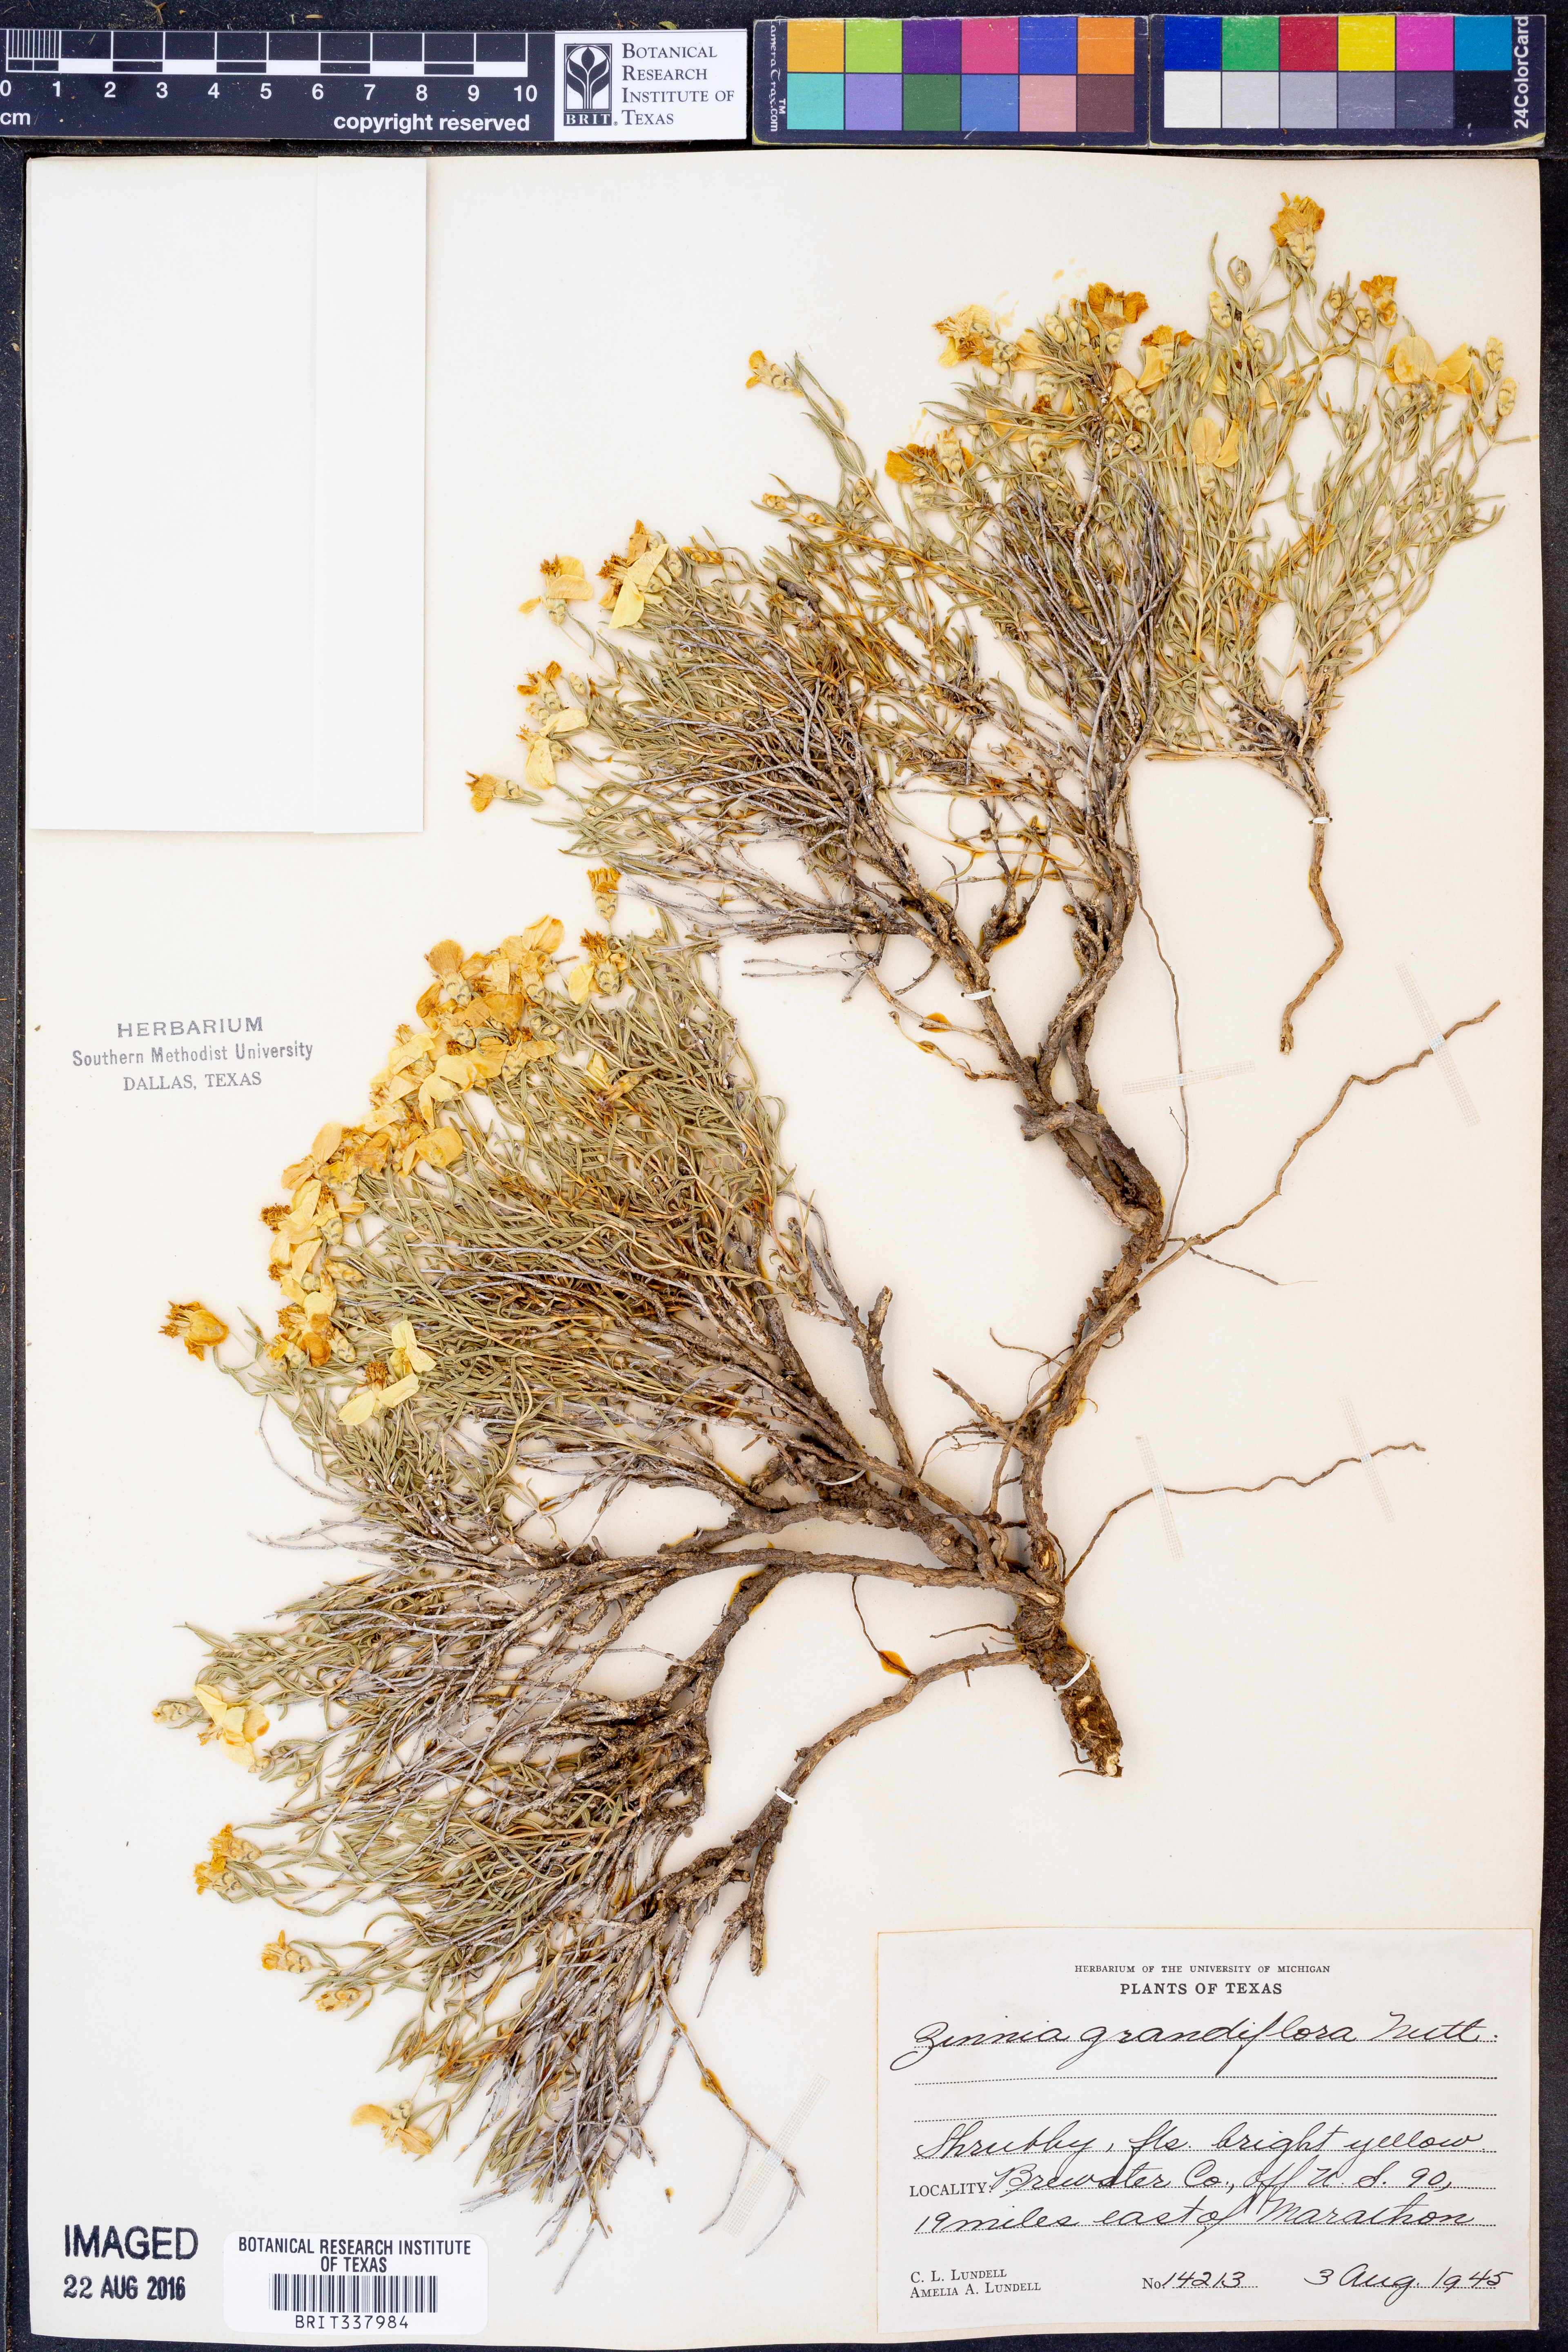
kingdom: Plantae
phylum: Tracheophyta
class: Magnoliopsida
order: Asterales
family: Asteraceae
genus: Zinnia
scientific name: Zinnia grandiflora
